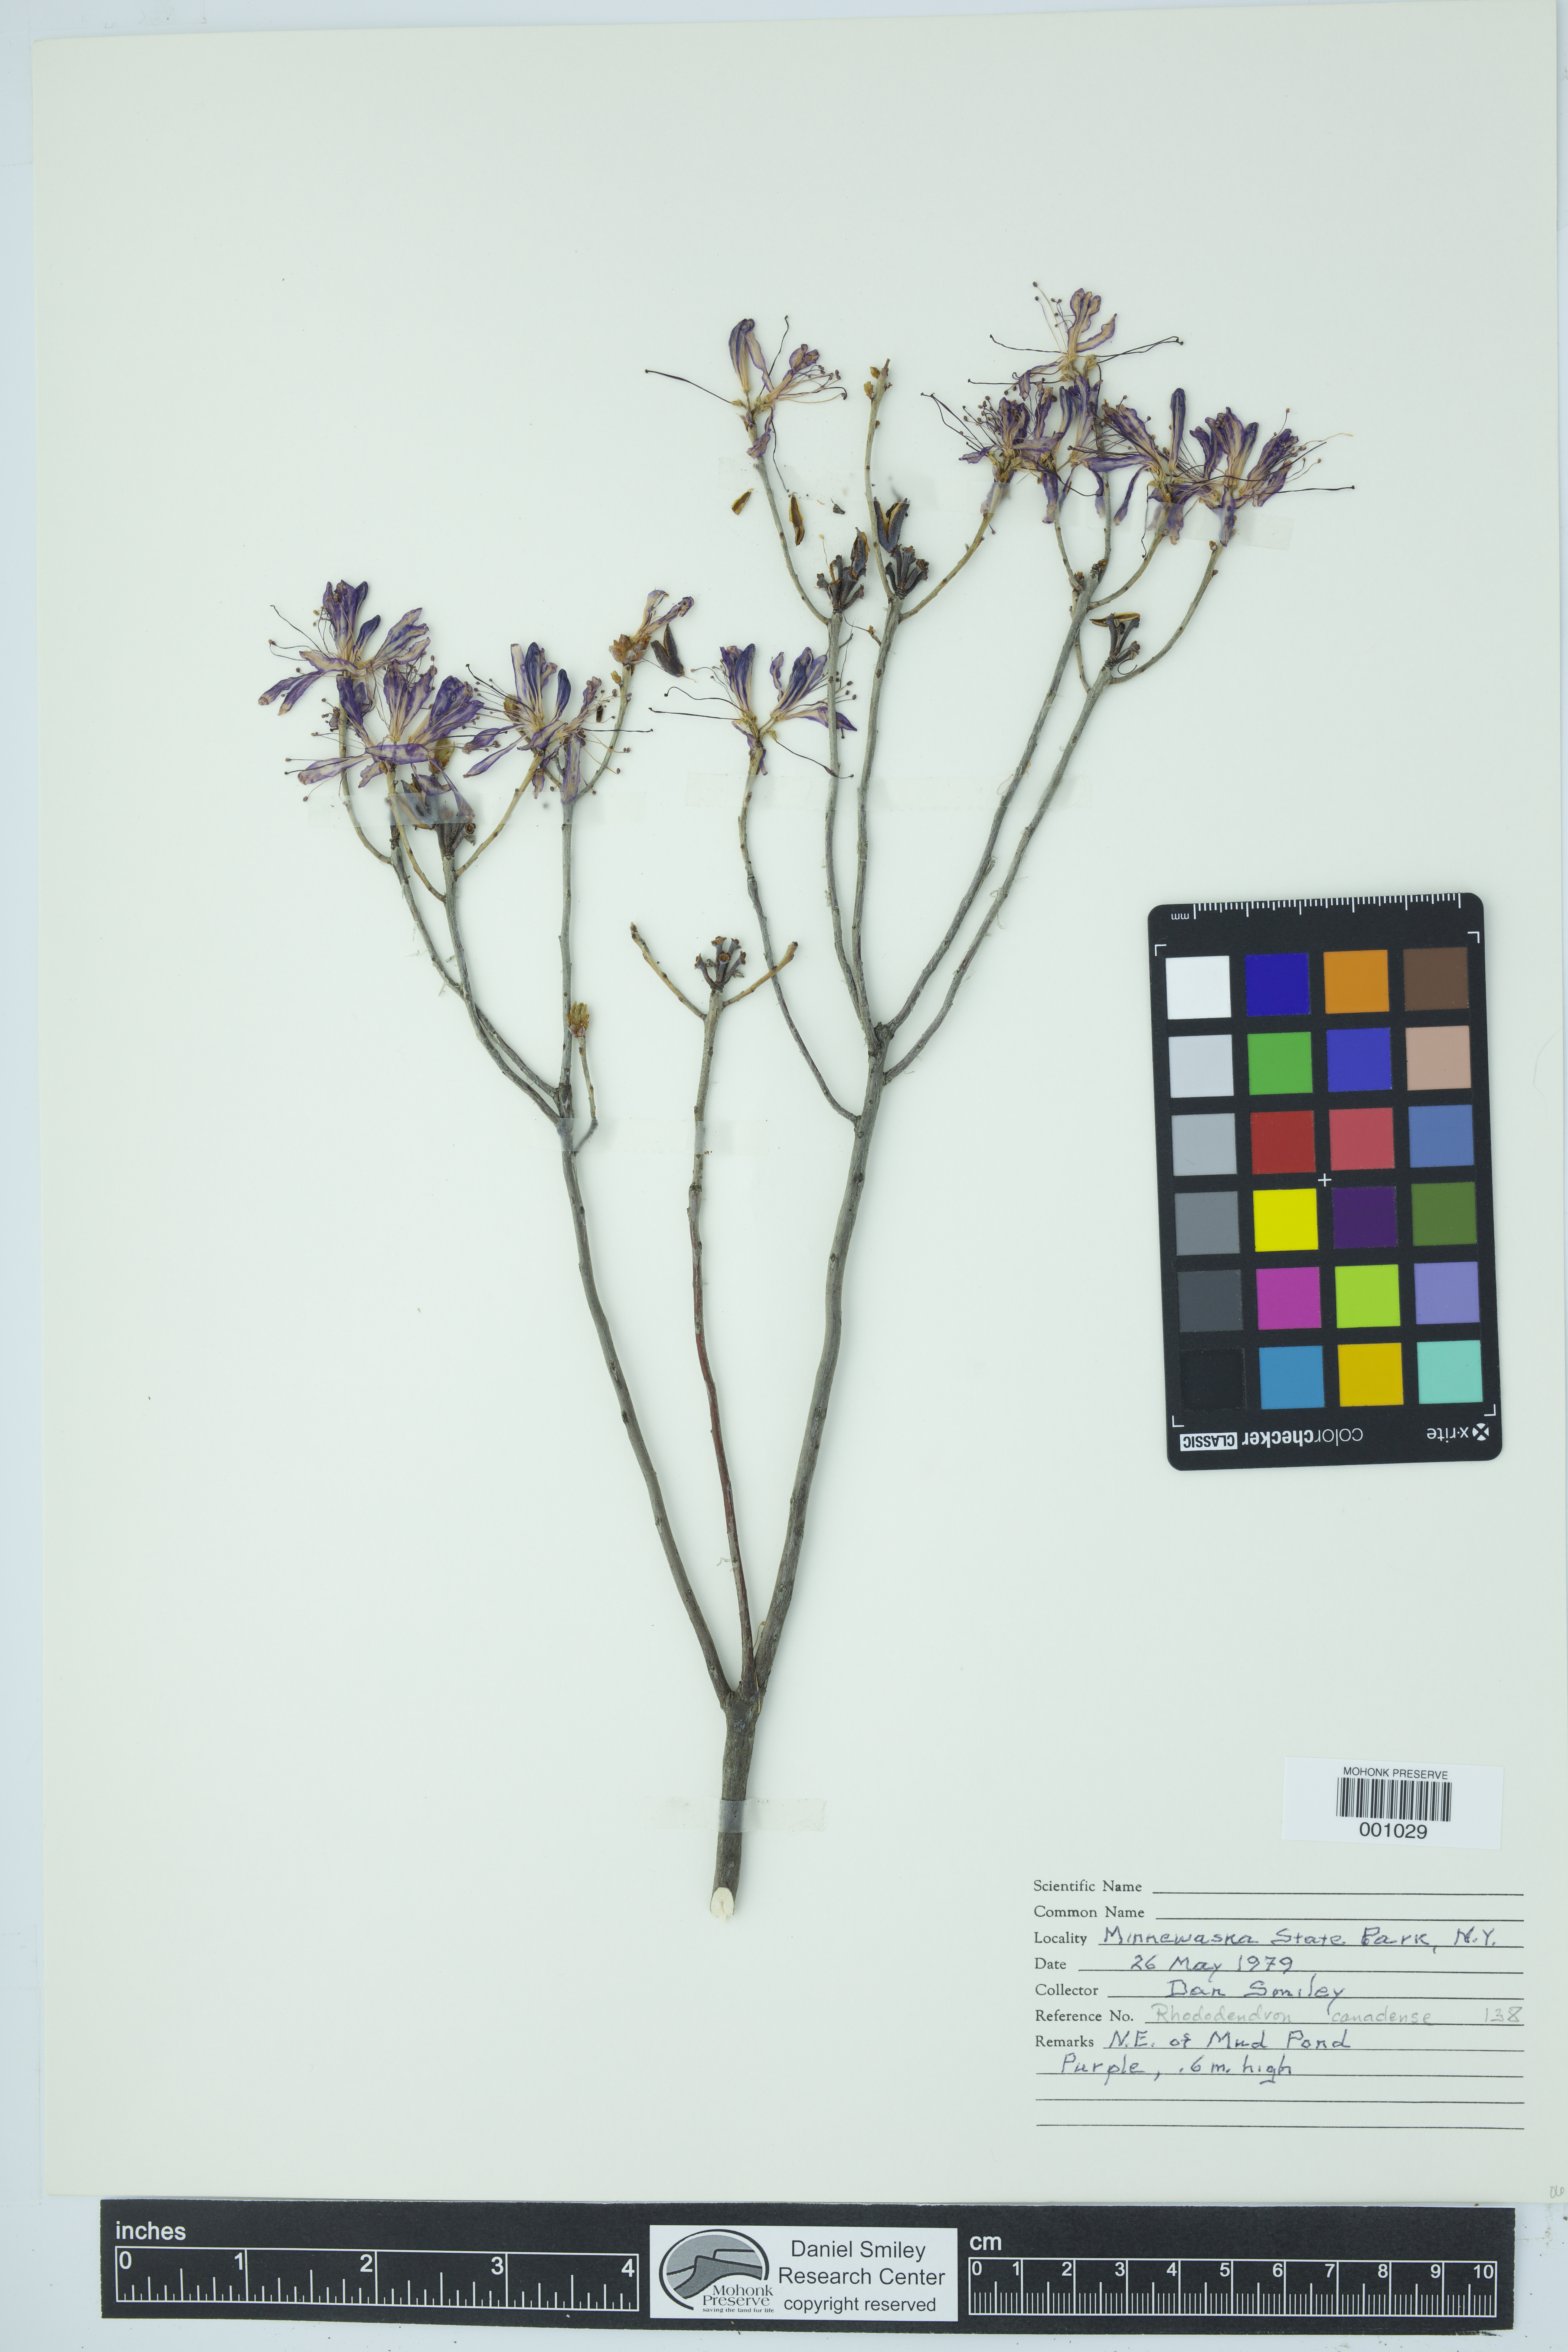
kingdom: Plantae
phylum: Tracheophyta
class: Magnoliopsida
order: Ericales
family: Ericaceae
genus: Rhododendron
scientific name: Rhododendron canadense
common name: Rhodora
